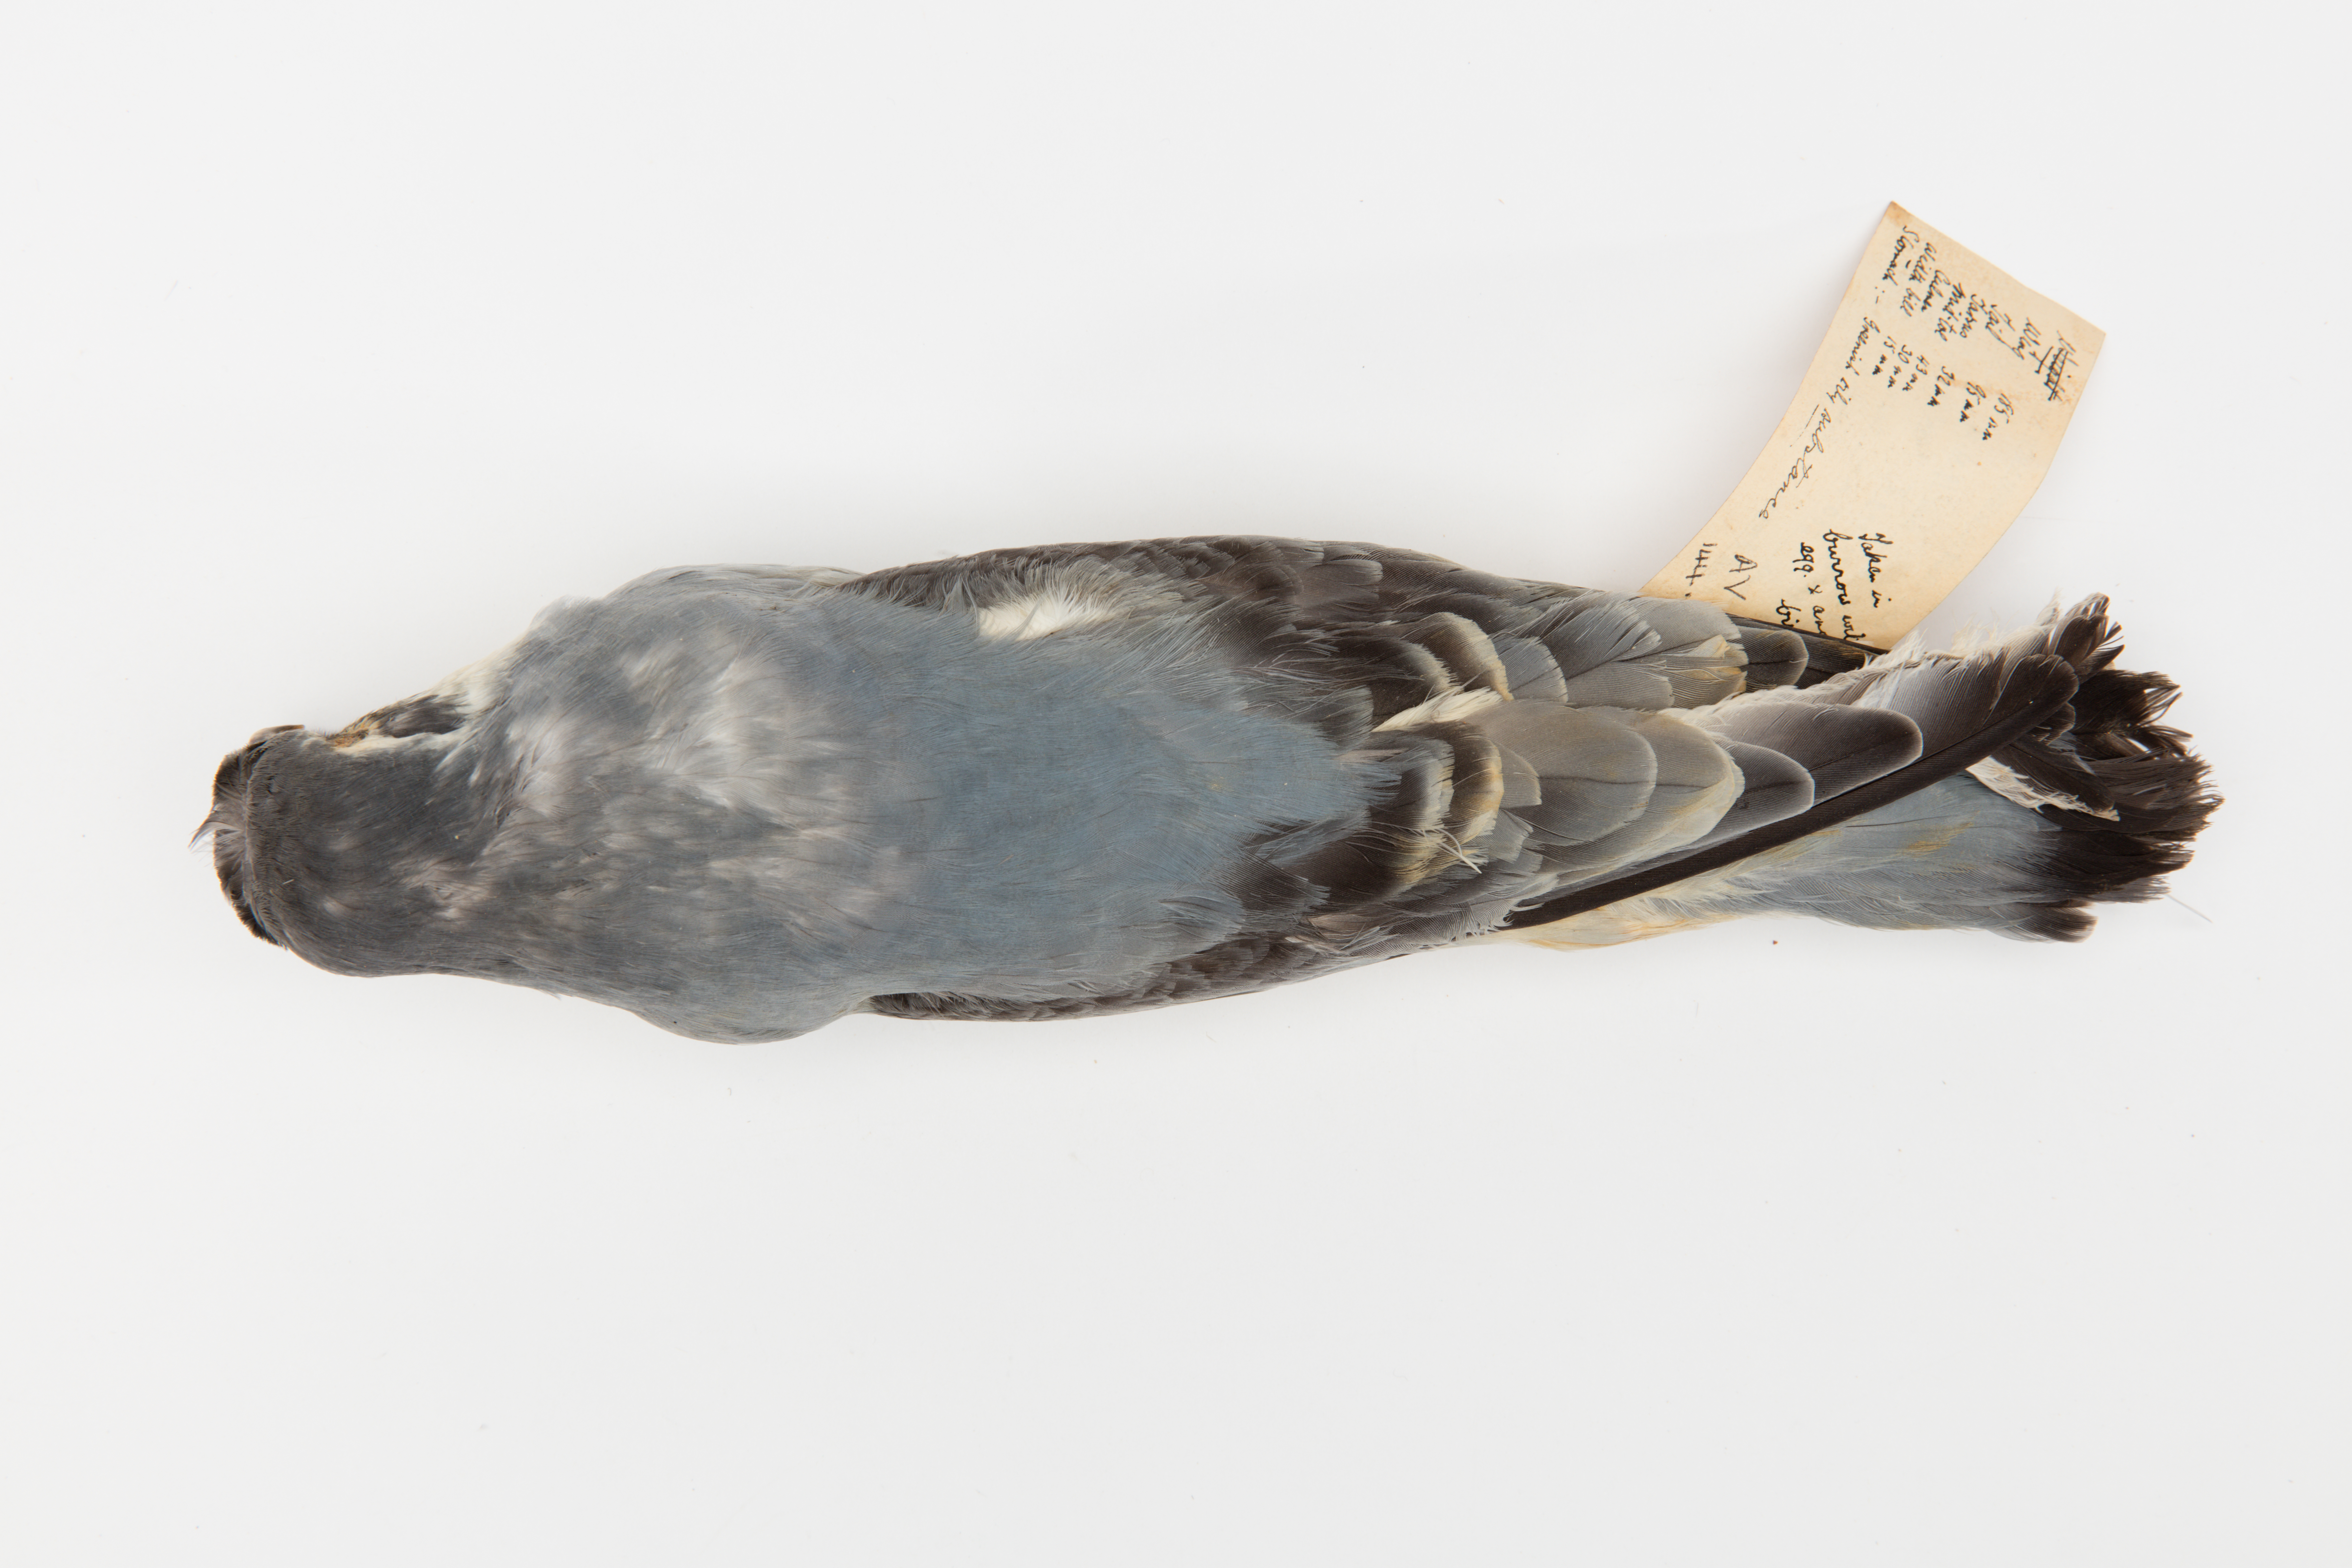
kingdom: Animalia
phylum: Chordata
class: Aves
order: Procellariiformes
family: Procellariidae
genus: Pachyptila
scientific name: Pachyptila desolata
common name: Antarctic prion
